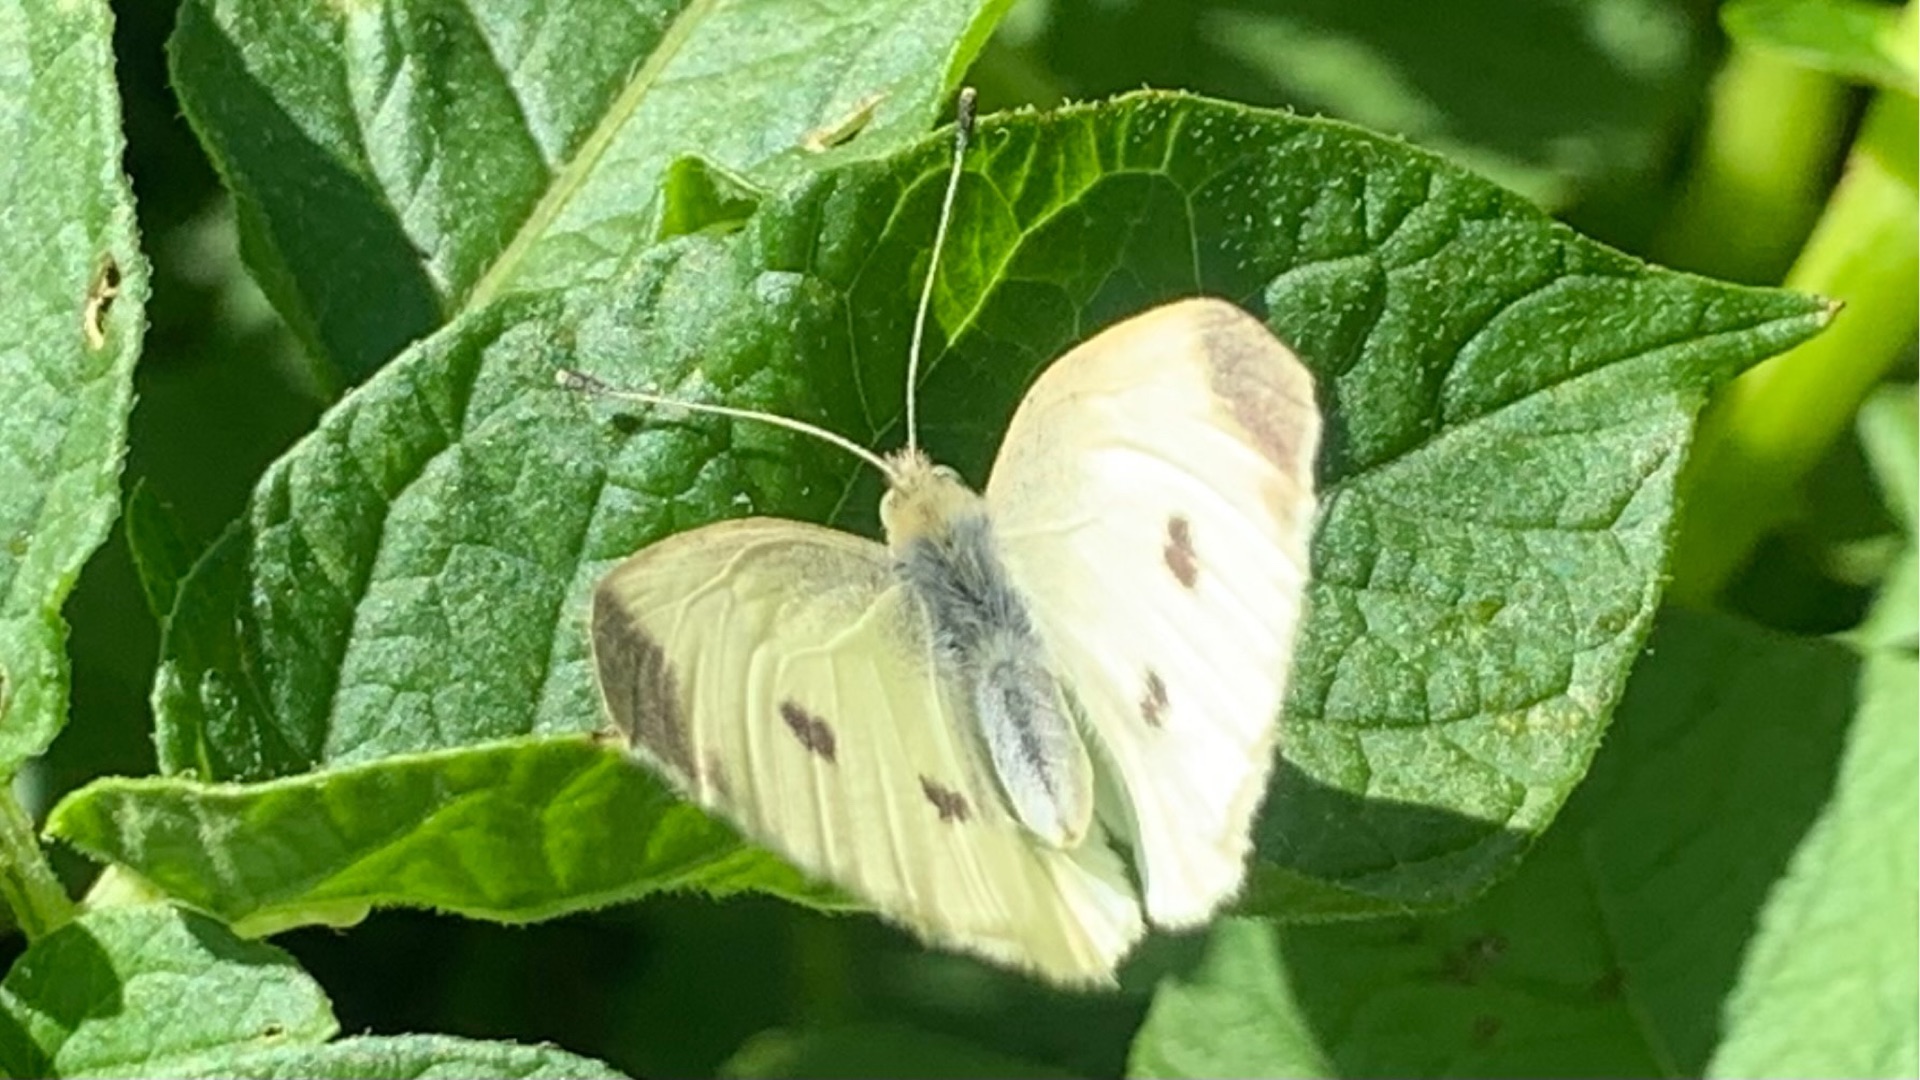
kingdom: Animalia
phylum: Arthropoda
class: Insecta
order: Lepidoptera
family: Pieridae
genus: Pieris
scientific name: Pieris rapae
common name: Lille kålsommerfugl
